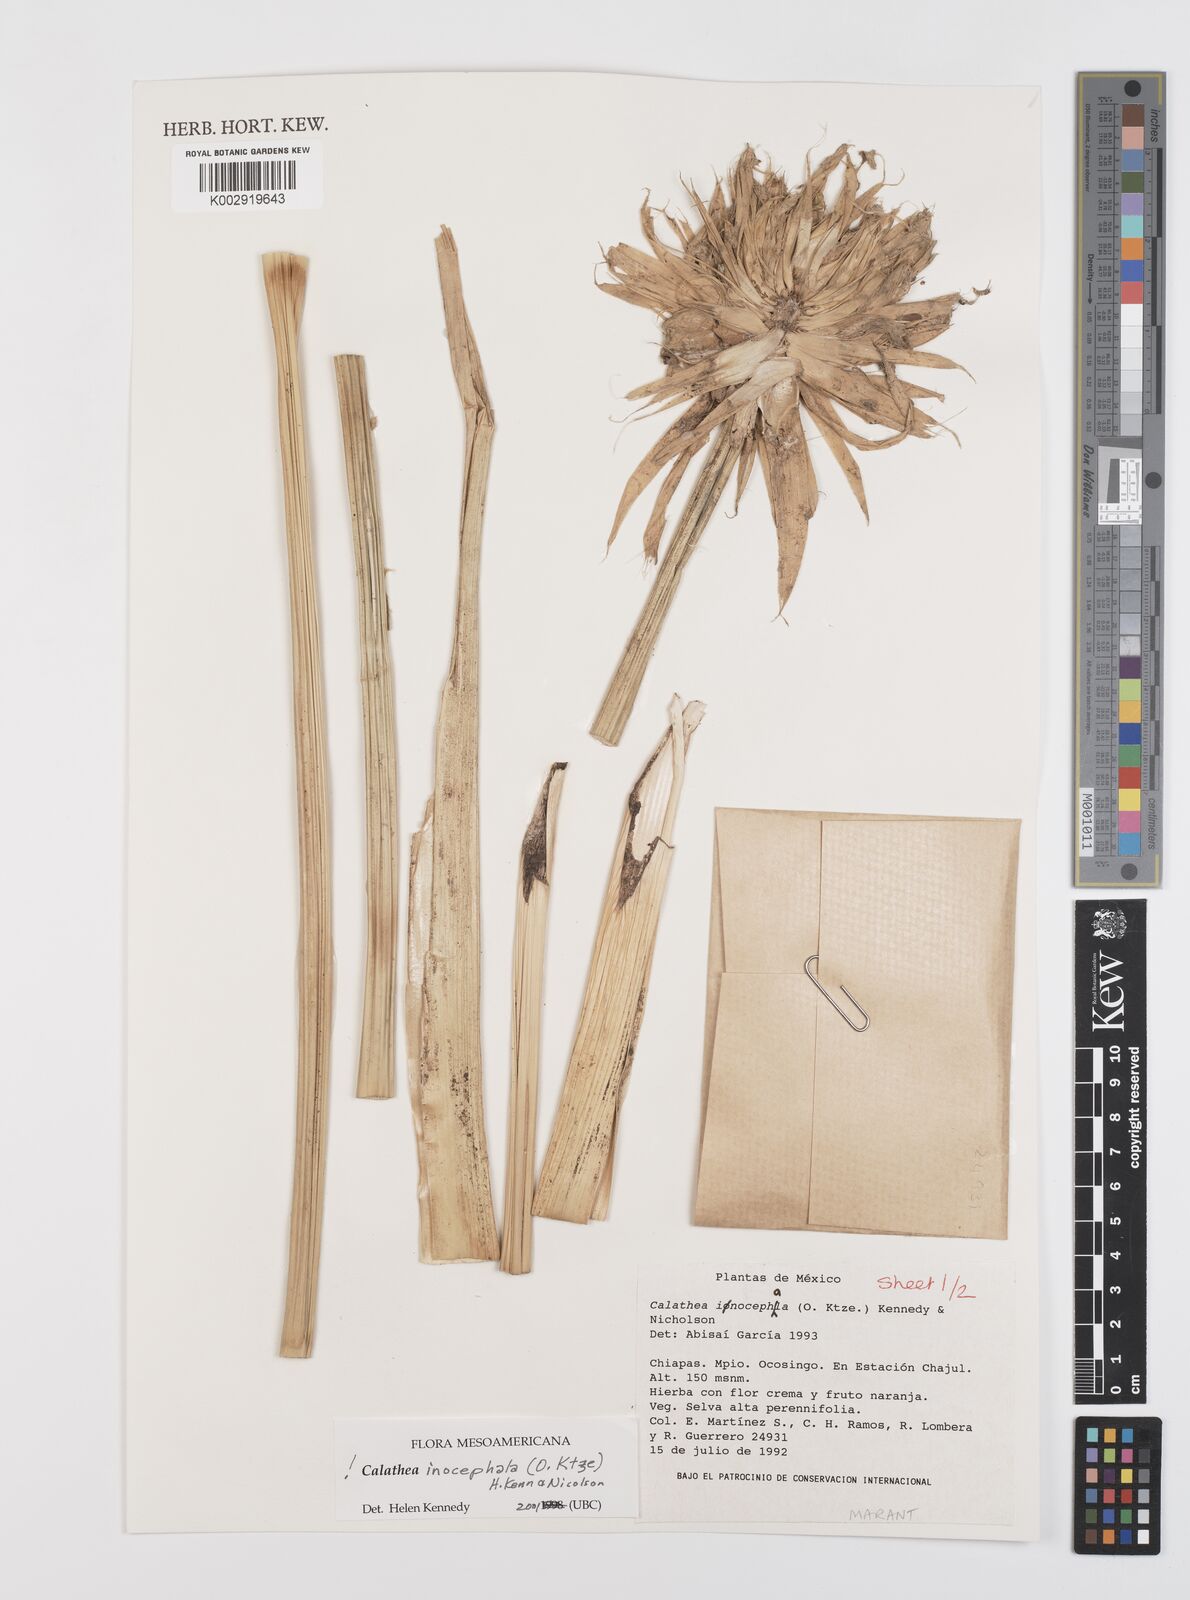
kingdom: Plantae
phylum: Tracheophyta
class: Liliopsida
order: Zingiberales
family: Marantaceae
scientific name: Marantaceae
